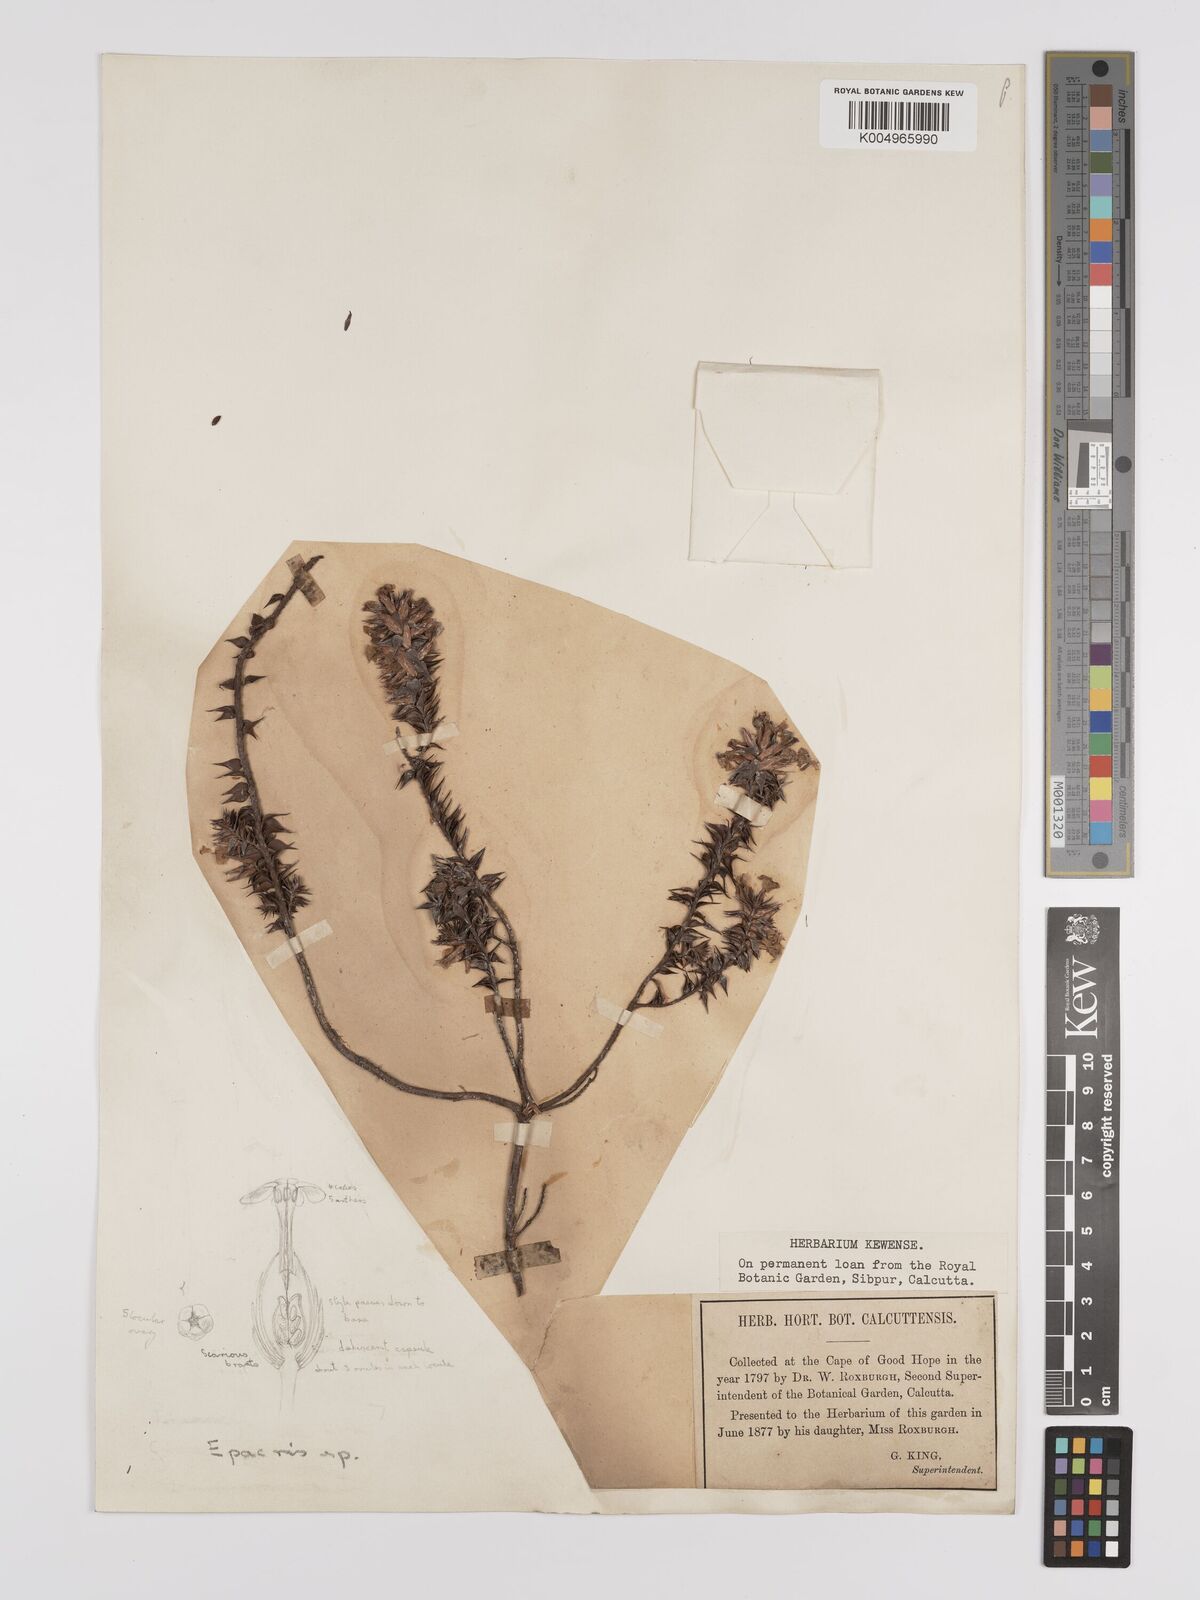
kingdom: Plantae
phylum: Tracheophyta
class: Magnoliopsida
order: Ericales
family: Ericaceae
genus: Epacris
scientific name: Epacris
